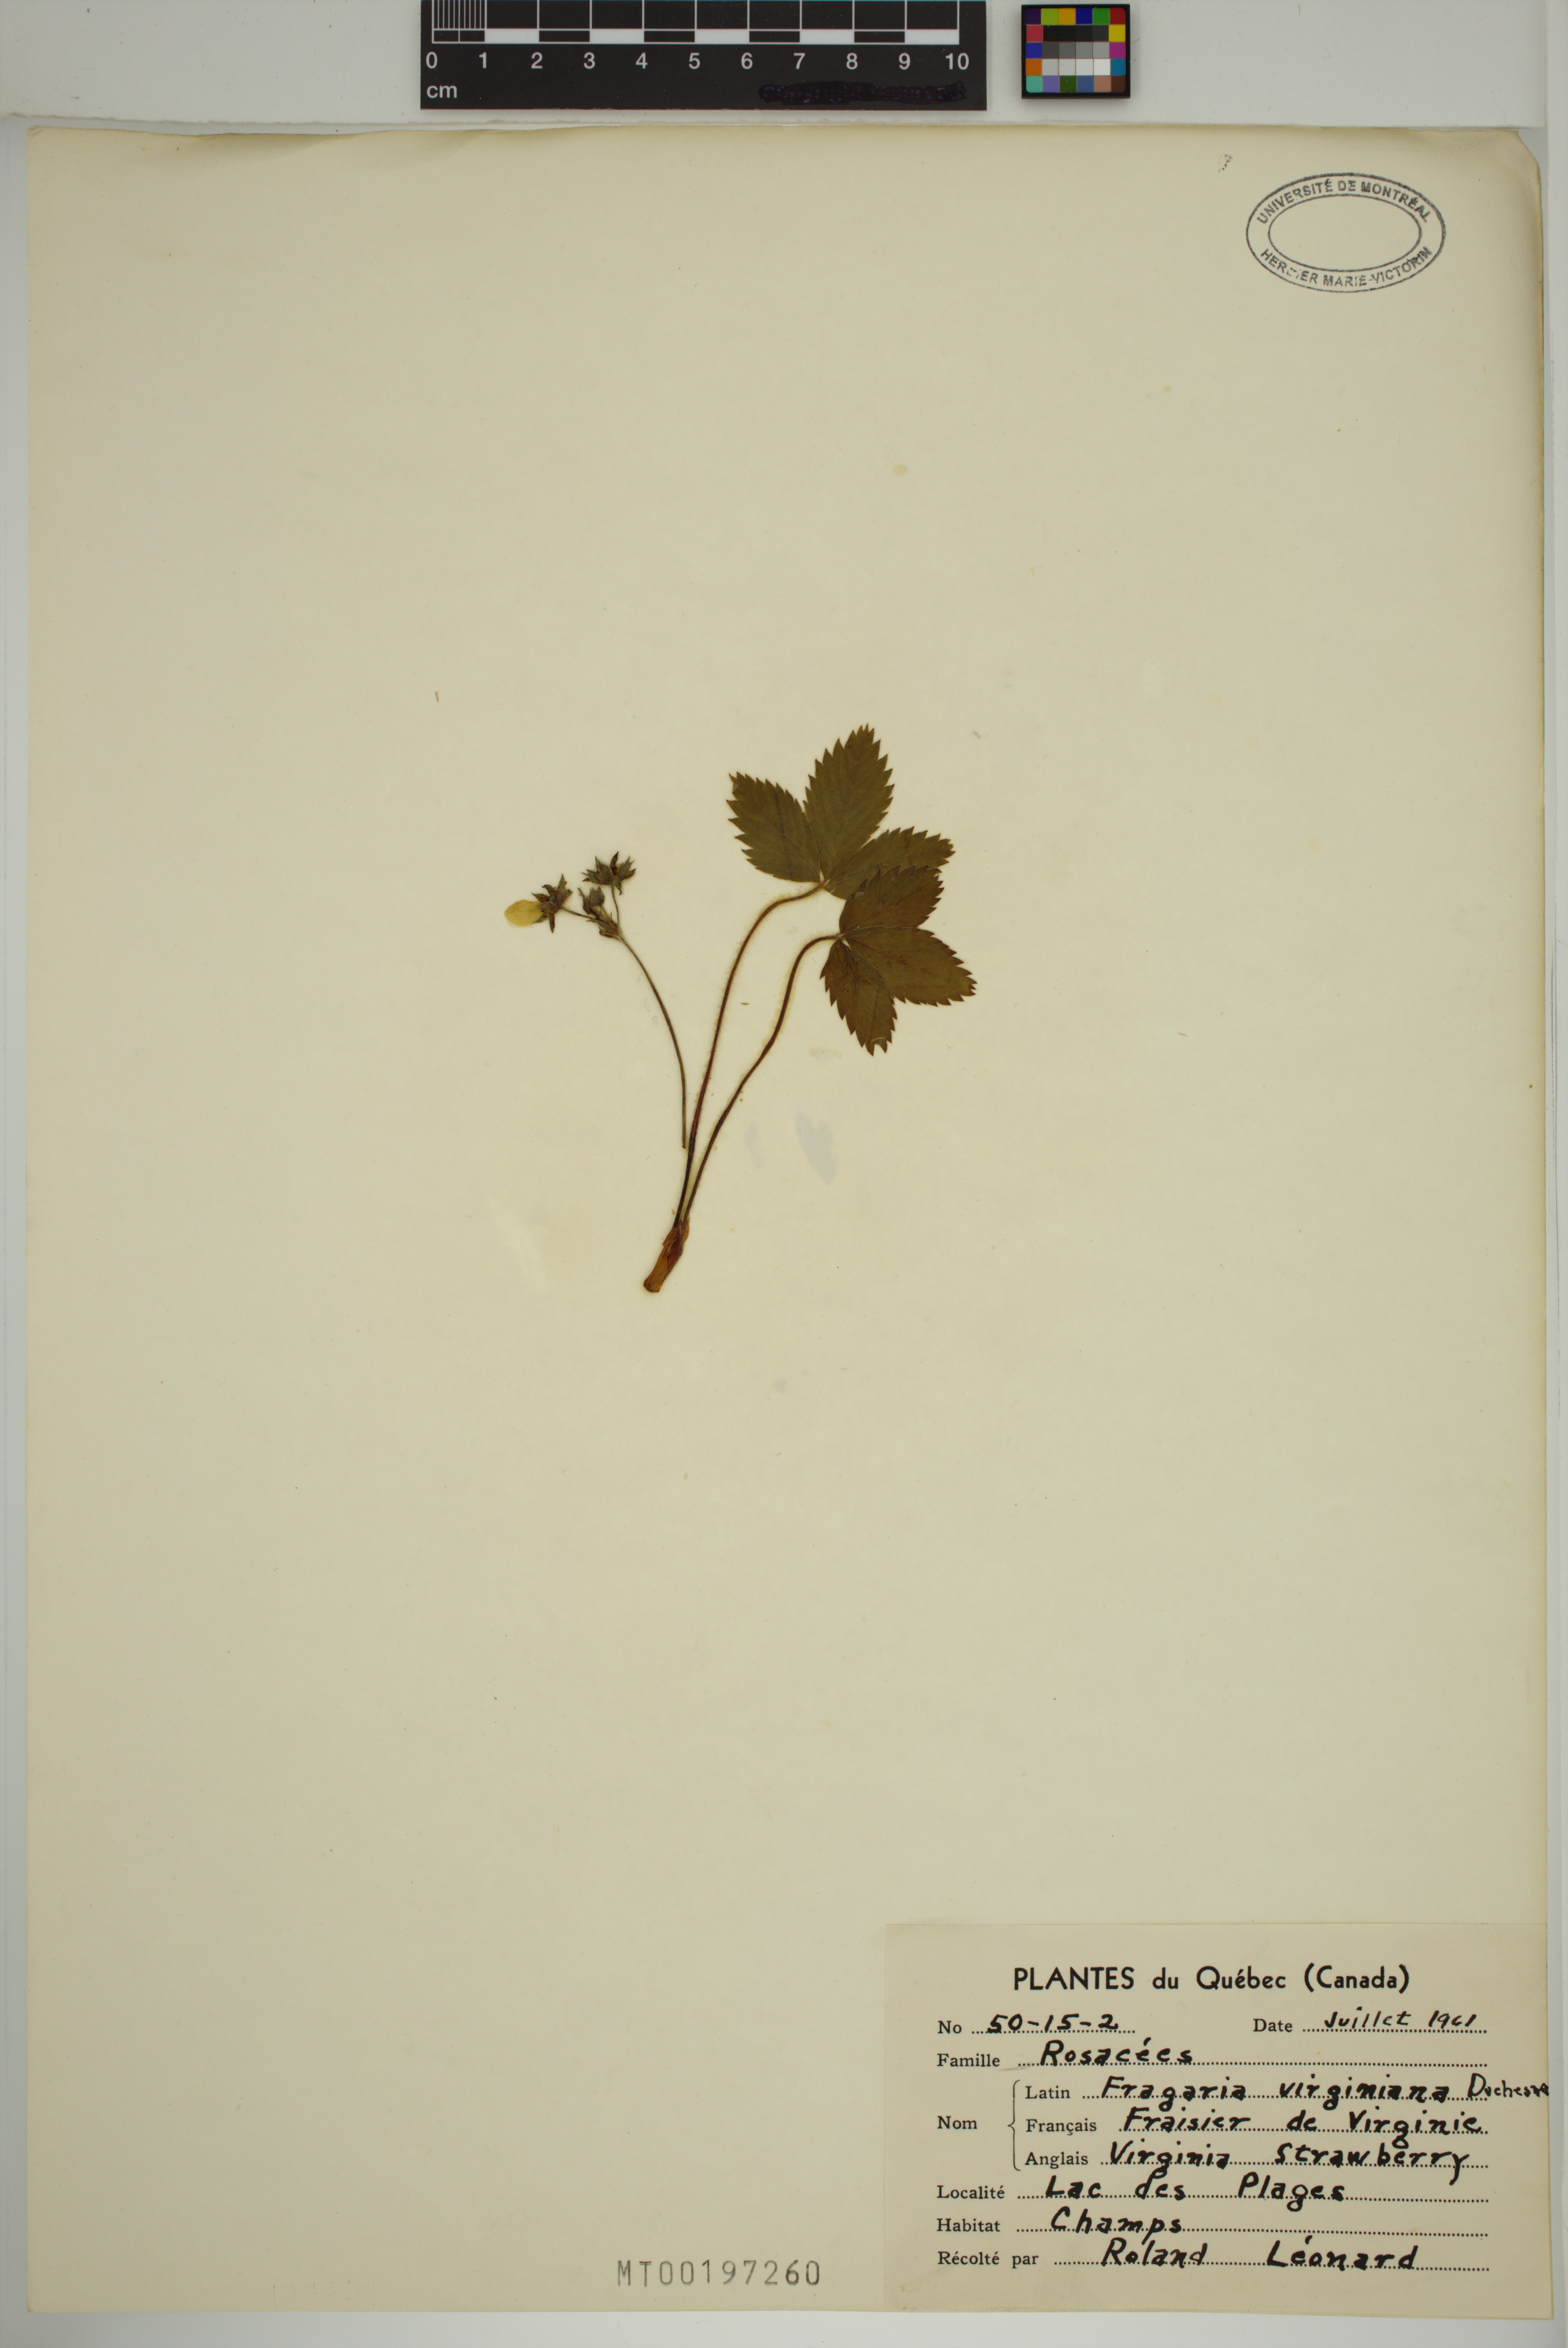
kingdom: Plantae
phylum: Tracheophyta
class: Magnoliopsida
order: Rosales
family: Rosaceae
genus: Fragaria
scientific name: Fragaria virginiana
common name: Thickleaved wild strawberry
